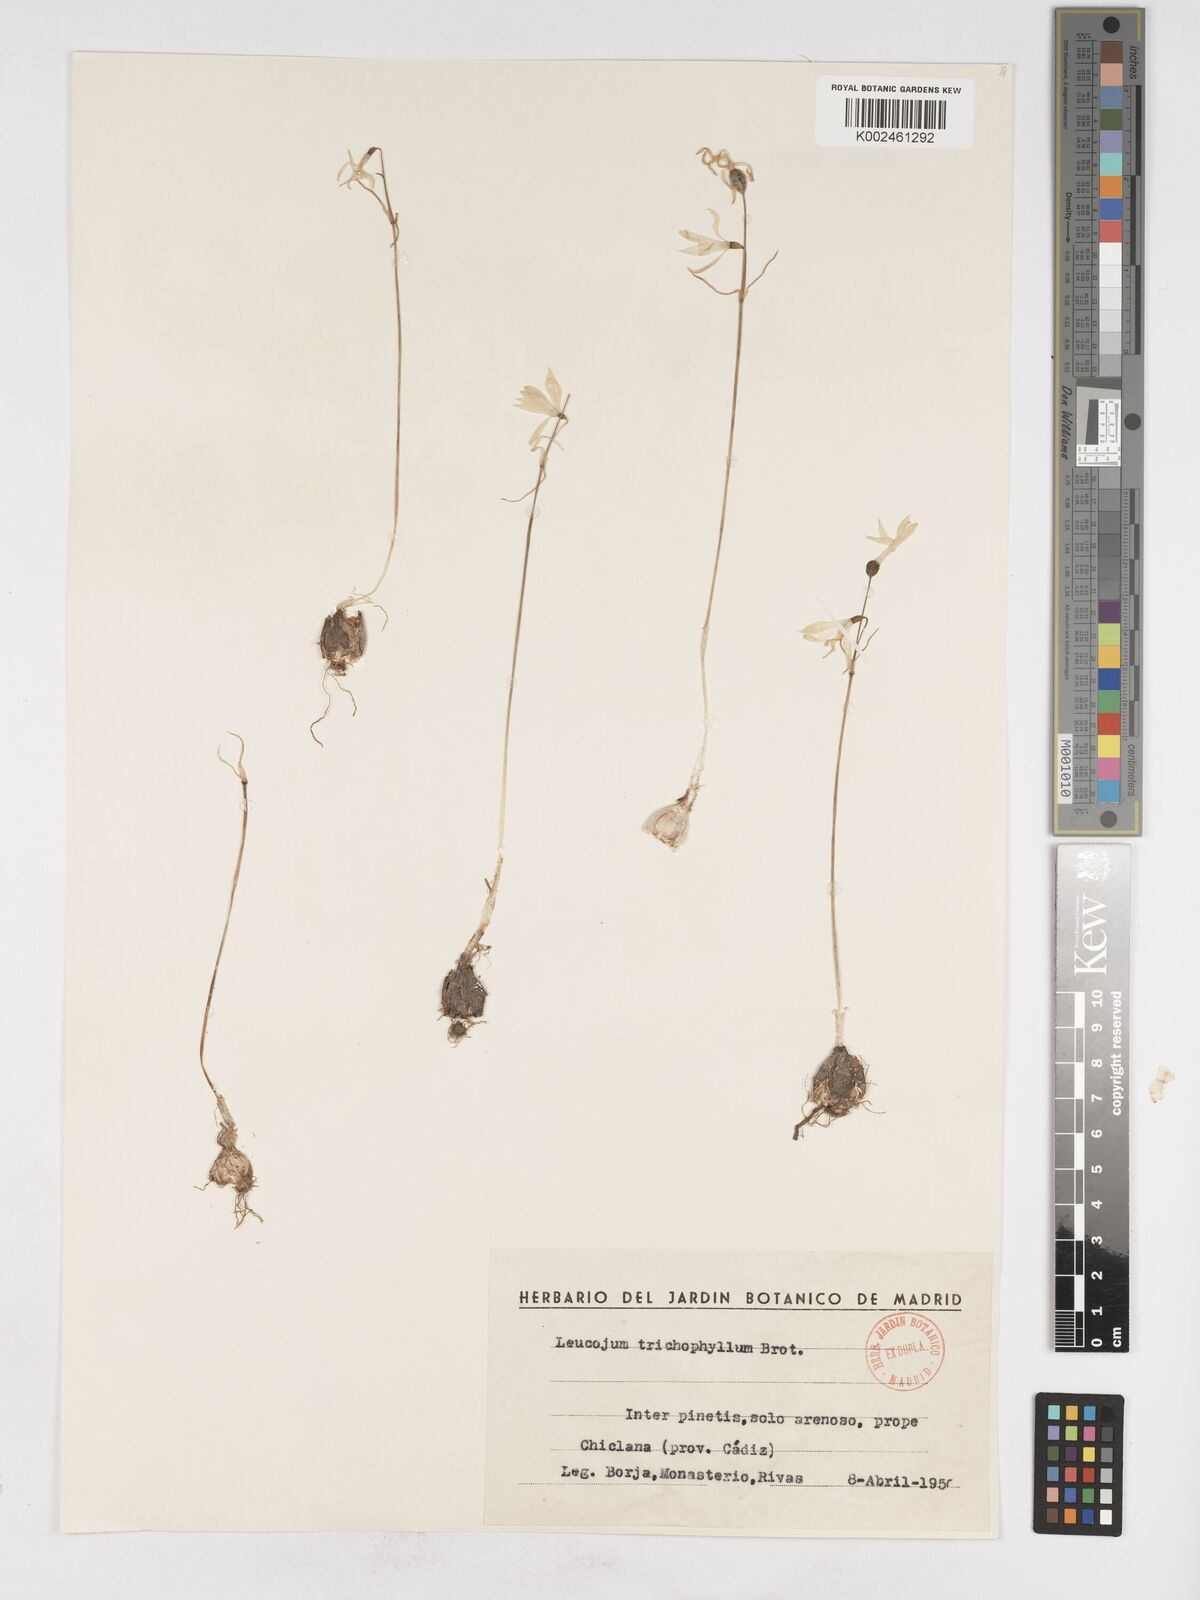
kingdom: Plantae
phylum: Tracheophyta
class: Liliopsida
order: Asparagales
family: Amaryllidaceae
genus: Acis
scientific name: Acis trichophylla
